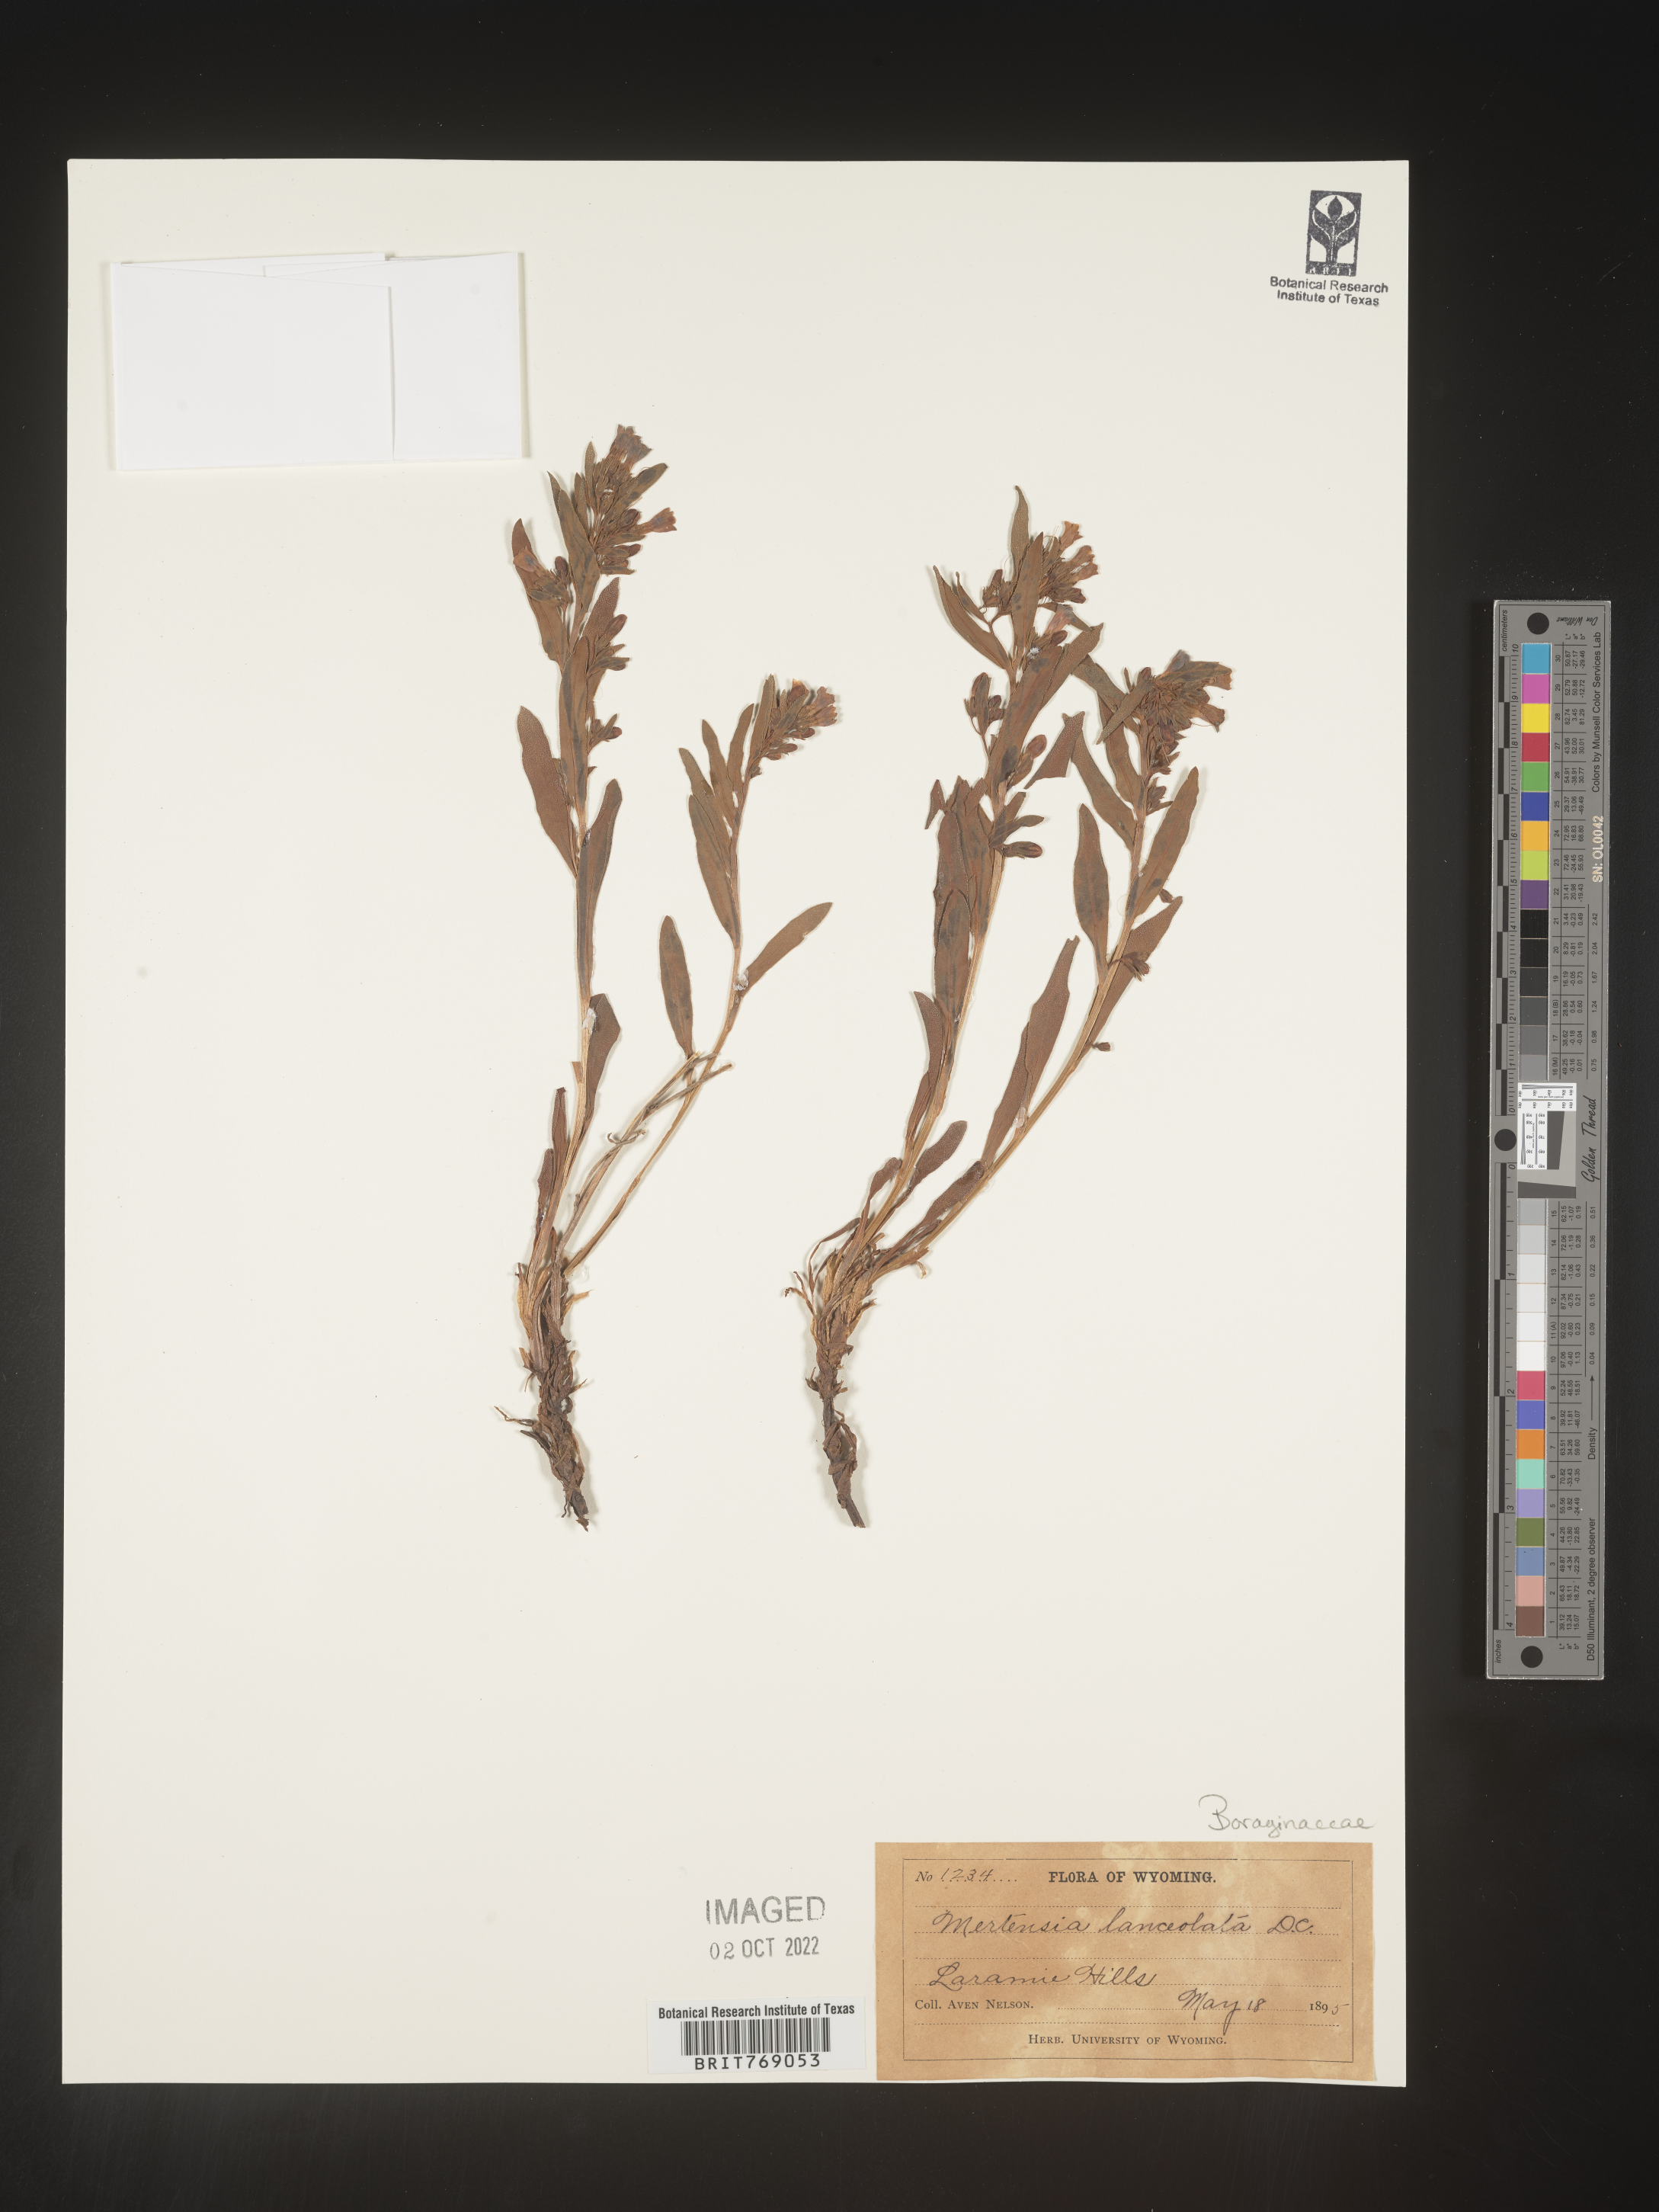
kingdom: Plantae
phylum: Tracheophyta
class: Magnoliopsida
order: Boraginales
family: Boraginaceae
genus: Mertensia
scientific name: Mertensia
